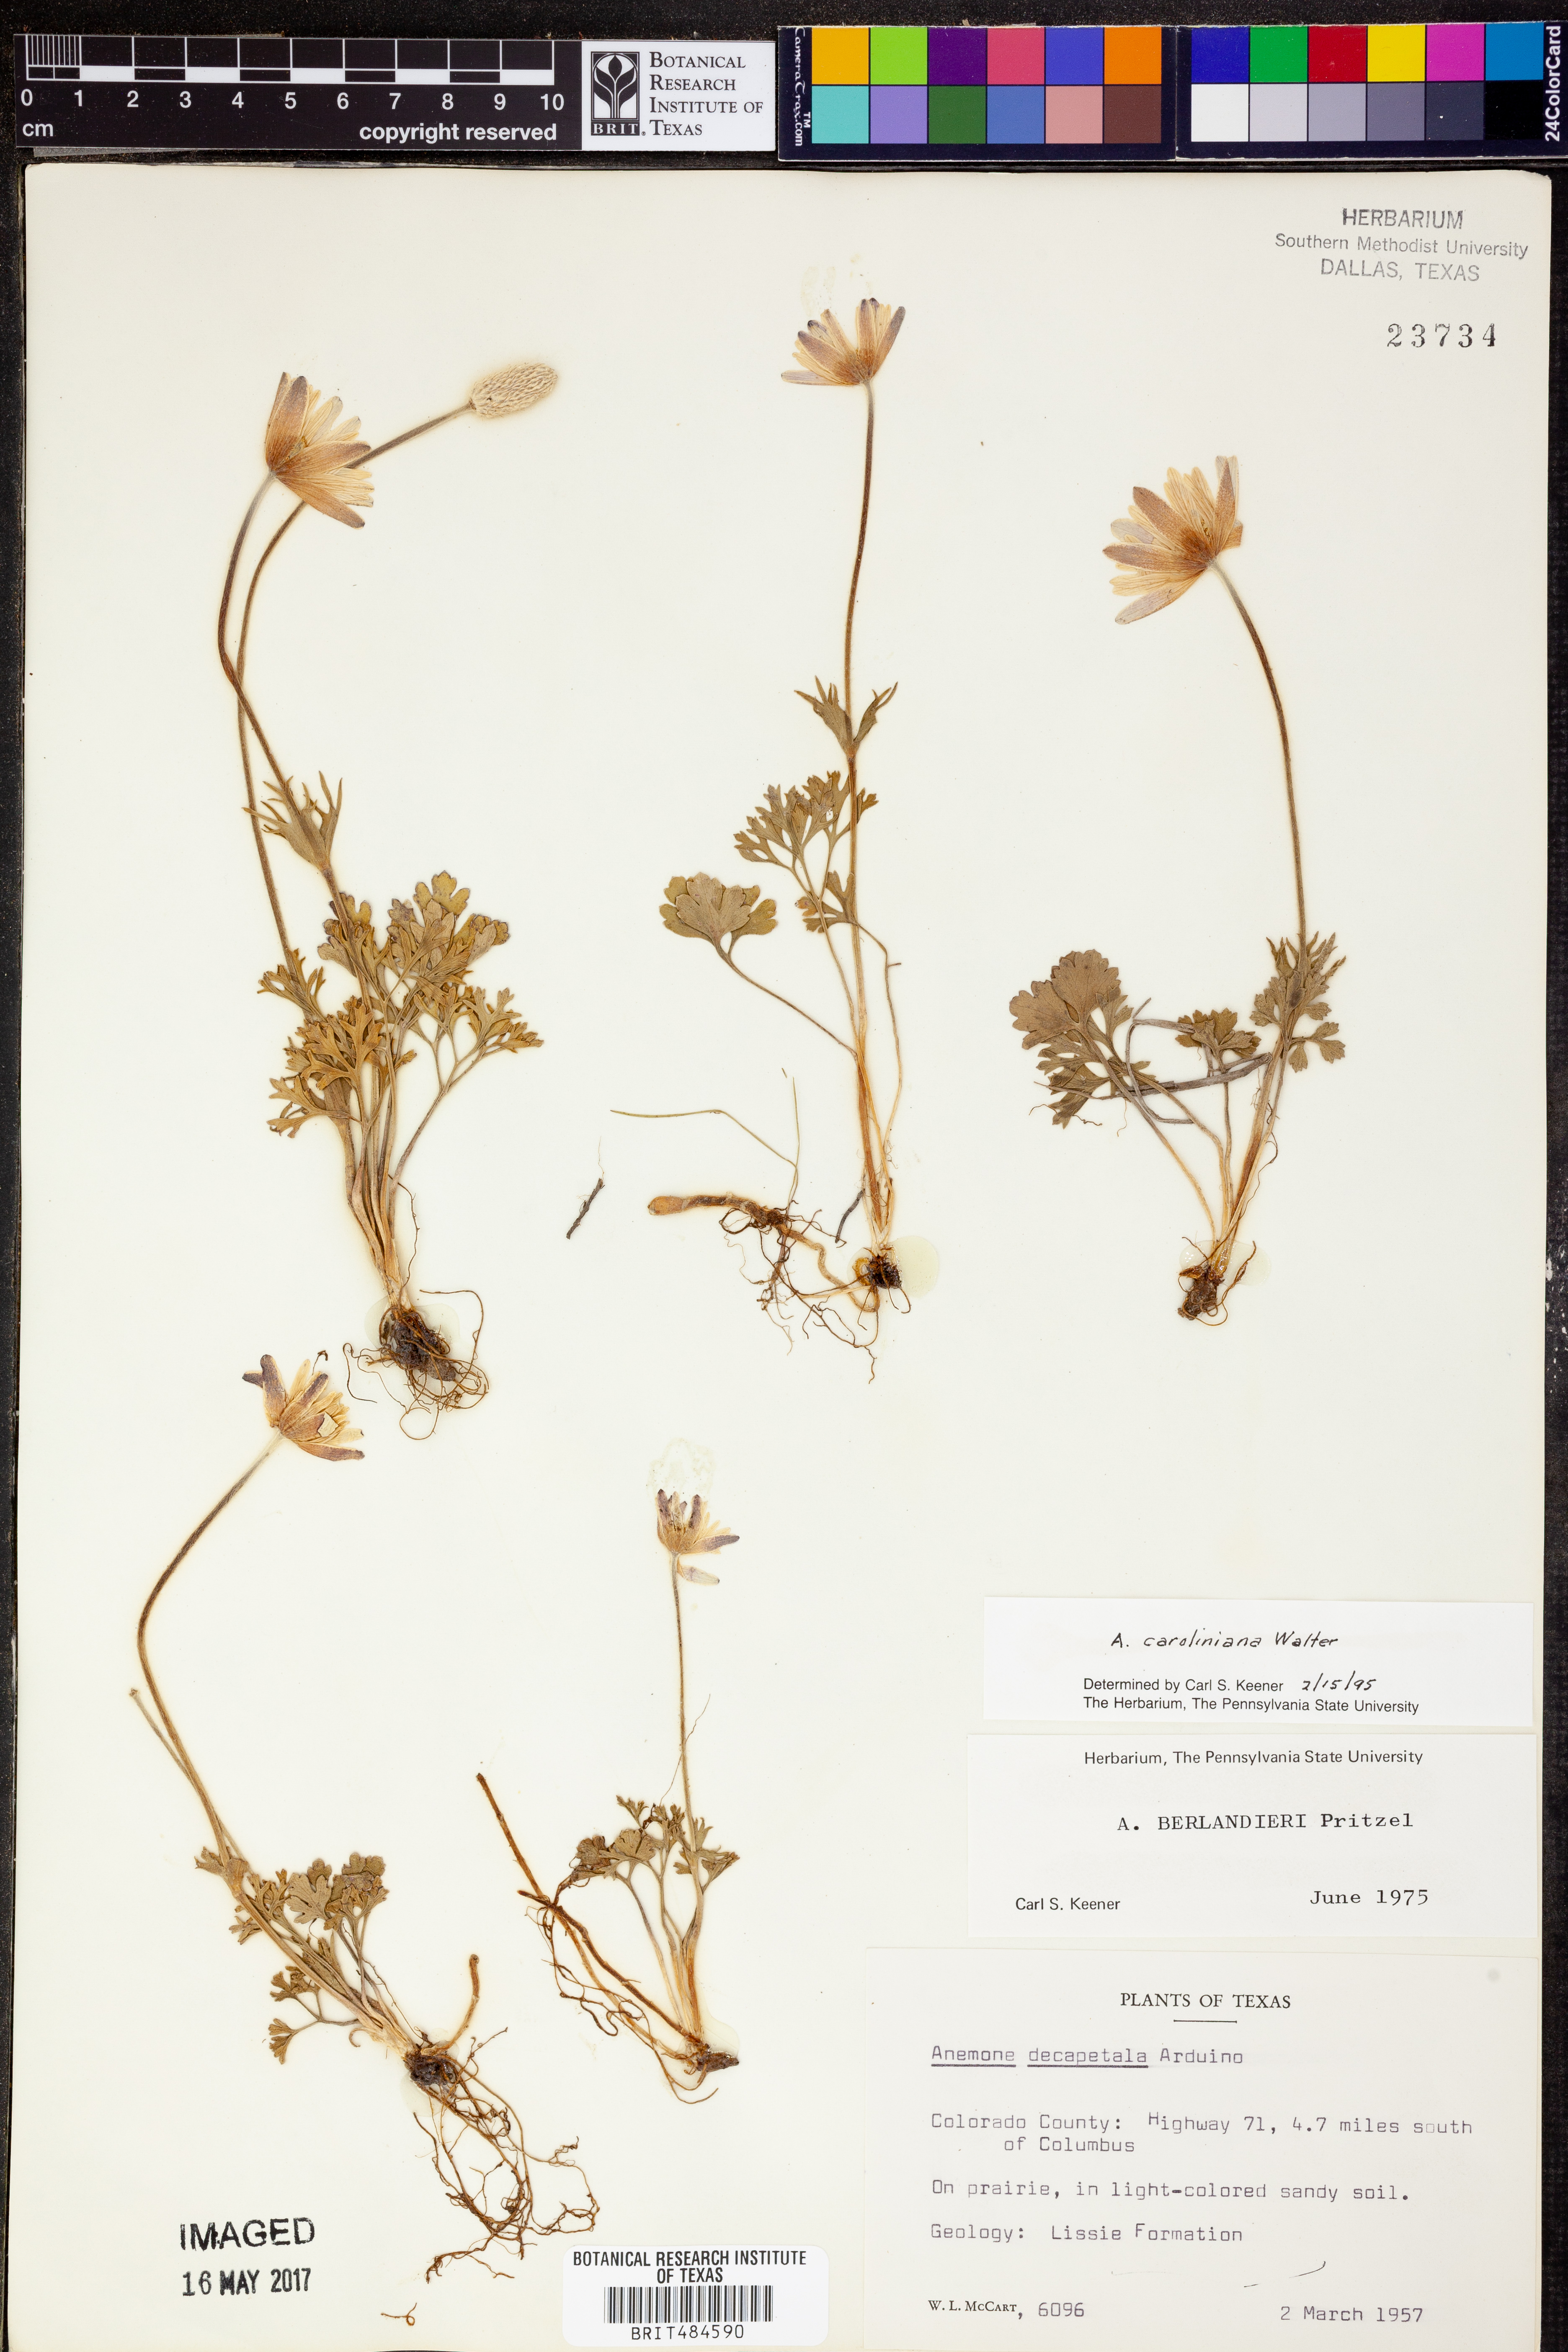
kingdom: Plantae
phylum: Tracheophyta
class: Magnoliopsida
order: Ranunculales
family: Ranunculaceae
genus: Anemone
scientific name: Anemone caroliniana
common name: Carolina anemone
